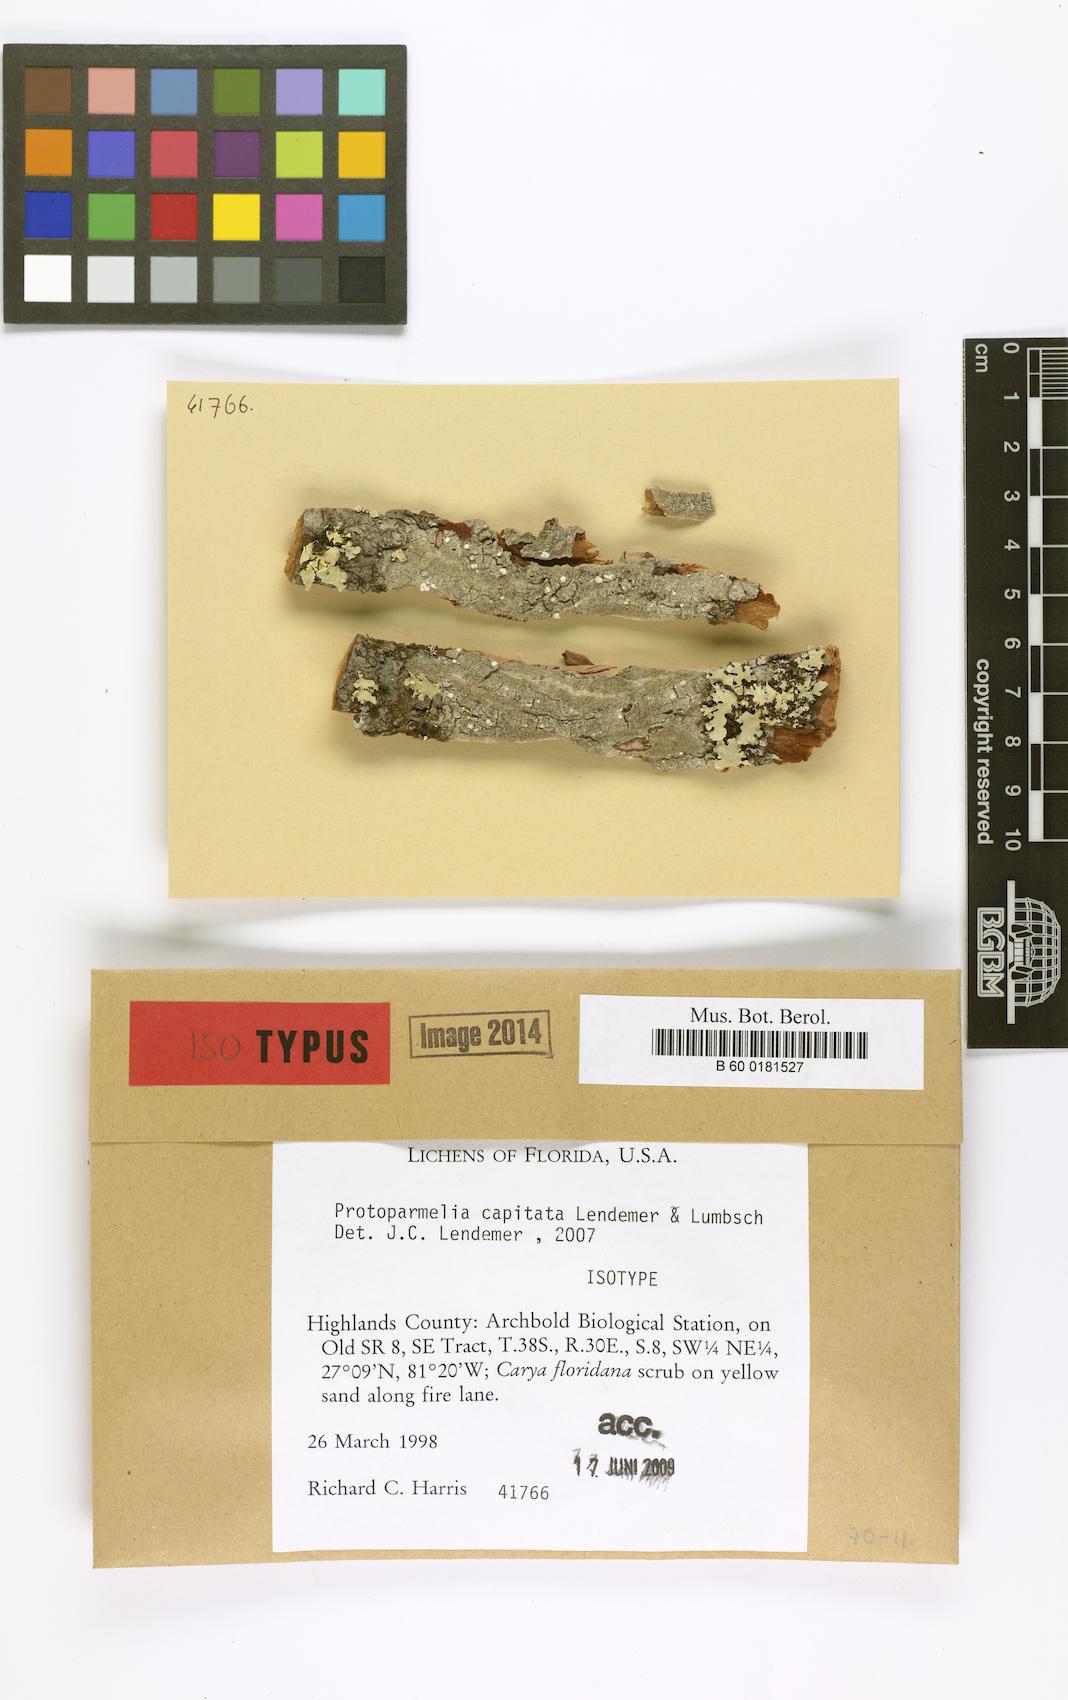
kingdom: Fungi
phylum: Ascomycota
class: Lecanoromycetes
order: Lecanorales
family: Parmeliaceae
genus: Neoprotoparmelia
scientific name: Neoprotoparmelia capitata
